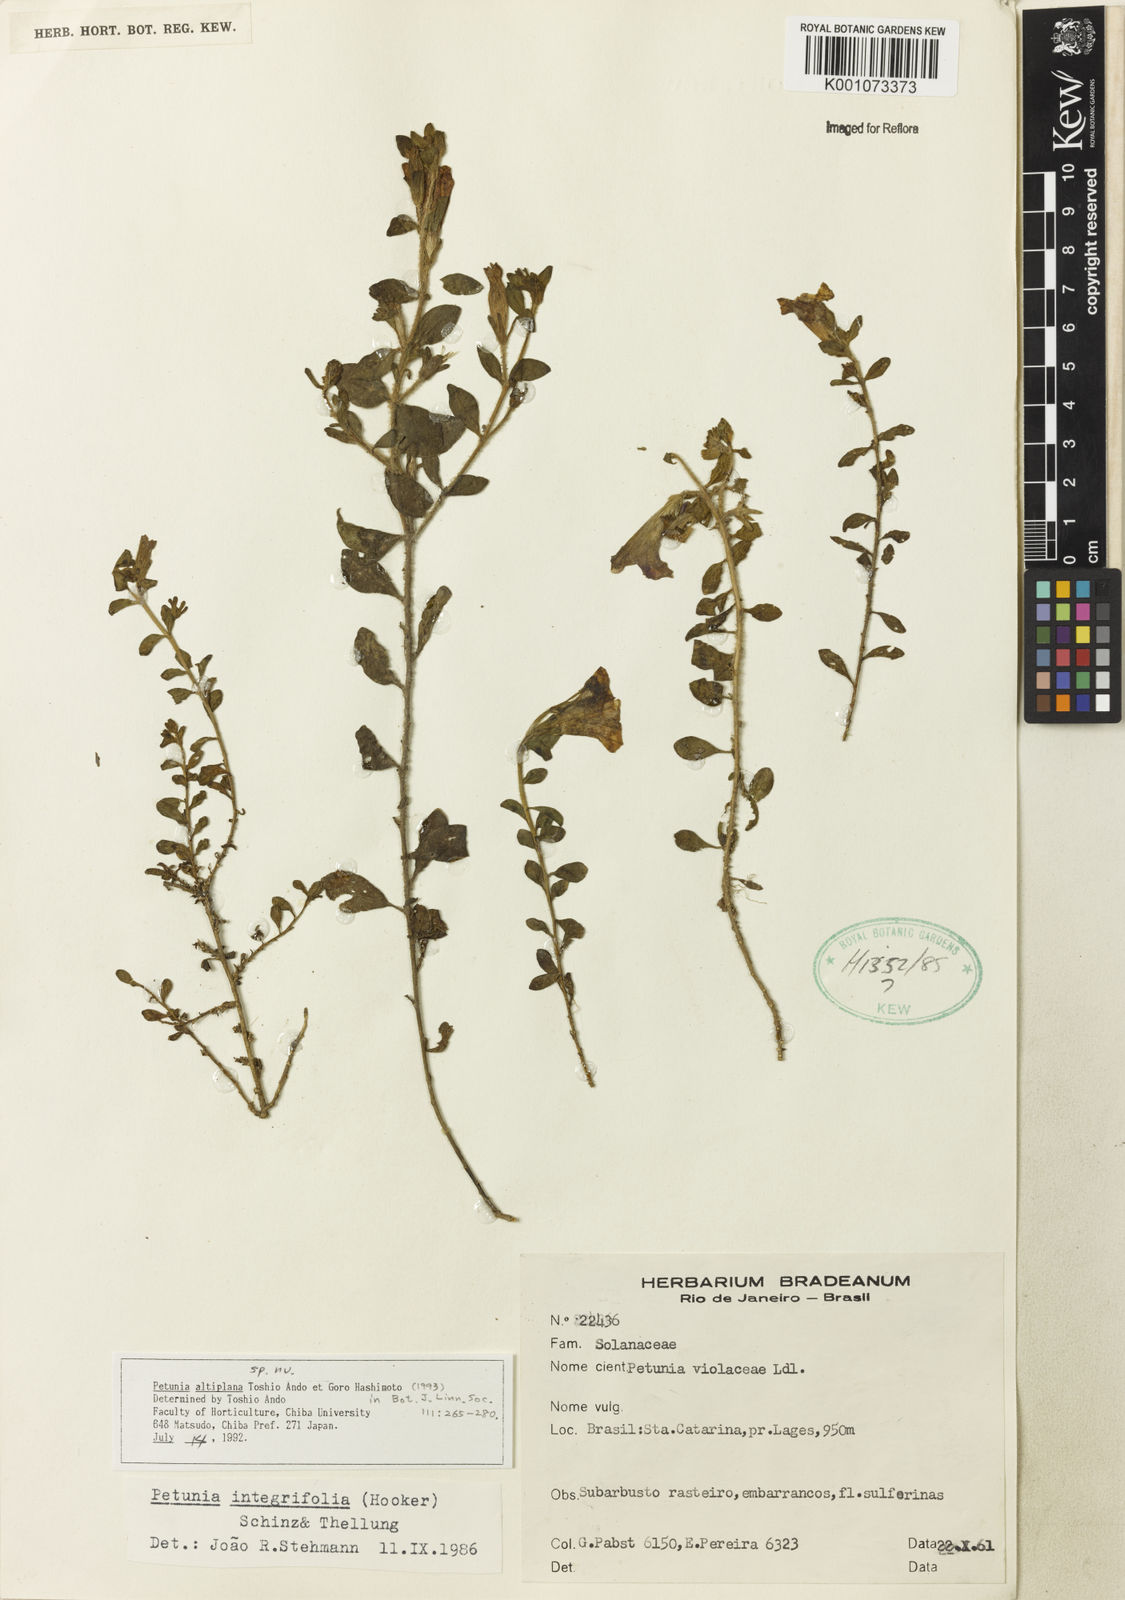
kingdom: Plantae
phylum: Tracheophyta
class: Magnoliopsida
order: Solanales
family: Solanaceae
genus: Petunia
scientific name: Petunia altiplana
